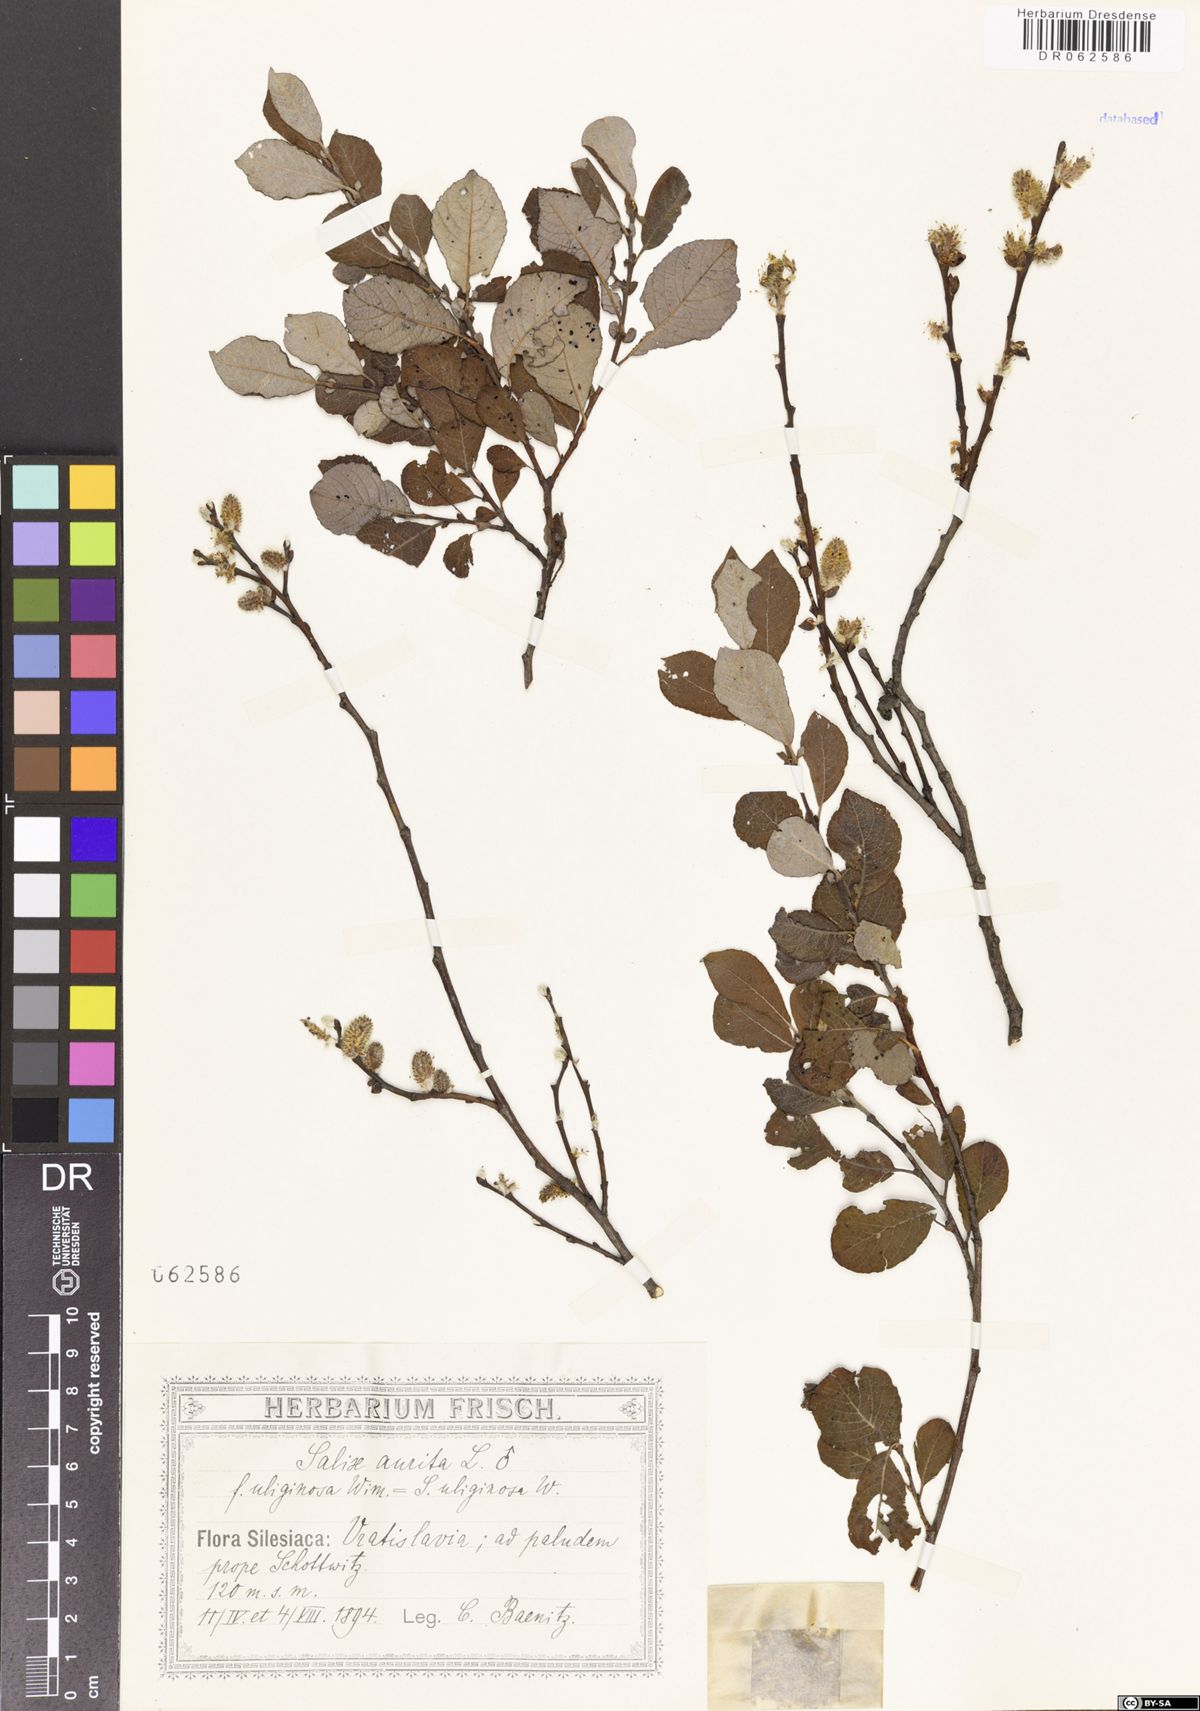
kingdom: Plantae
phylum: Tracheophyta
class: Magnoliopsida
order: Malpighiales
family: Salicaceae
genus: Salix
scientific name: Salix aurita
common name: Eared willow
